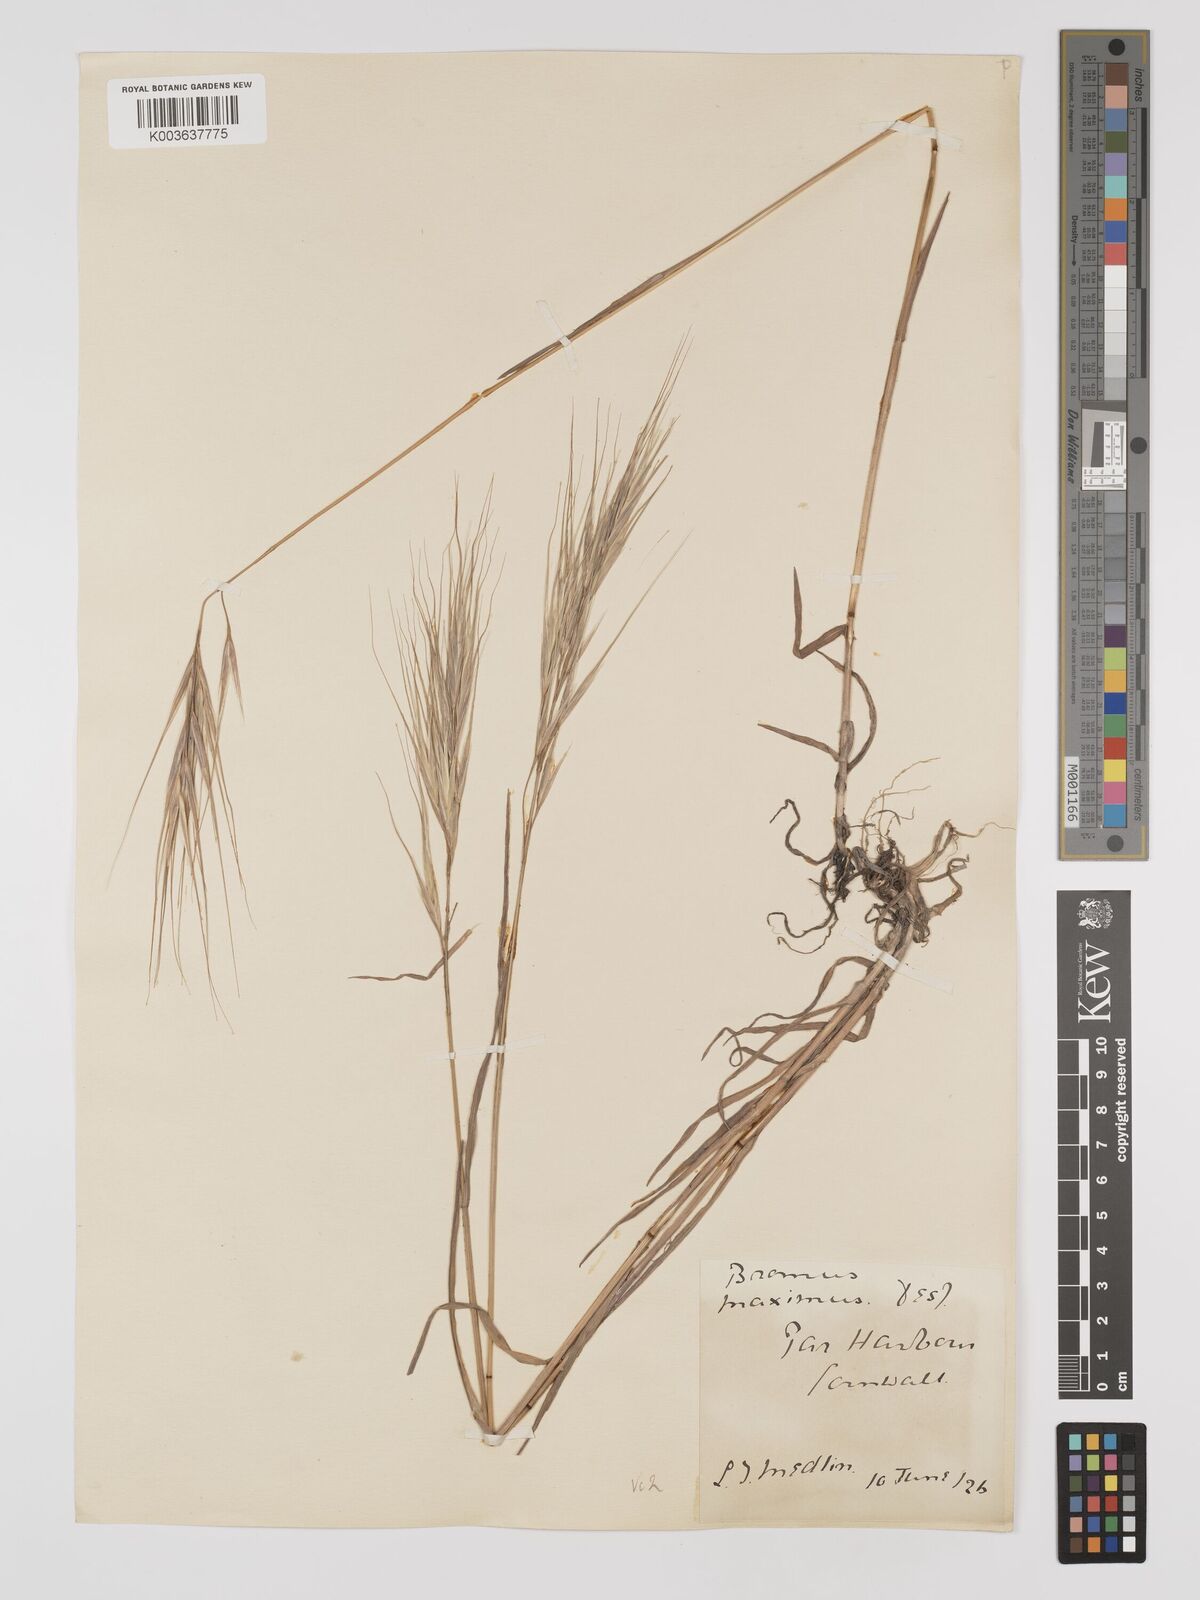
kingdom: Plantae
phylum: Tracheophyta
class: Liliopsida
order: Poales
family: Poaceae
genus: Bromus
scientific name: Bromus
